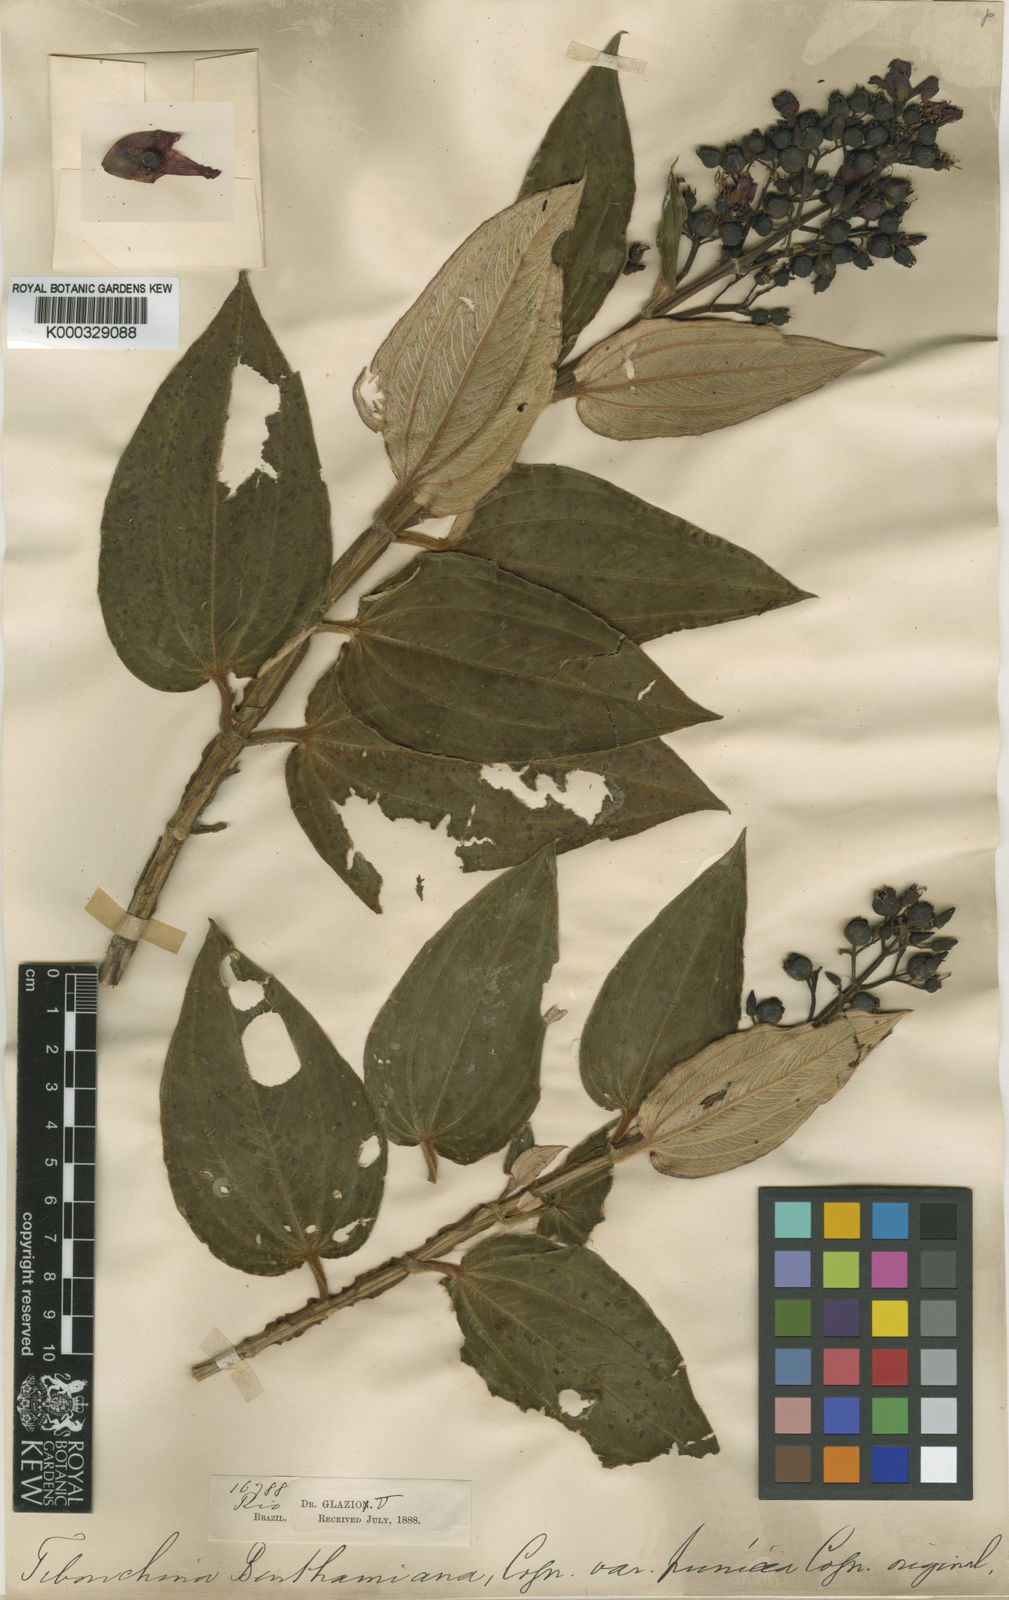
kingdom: Plantae
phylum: Tracheophyta
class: Magnoliopsida
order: Myrtales
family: Melastomataceae
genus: Pleroma
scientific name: Pleroma benthamianum
